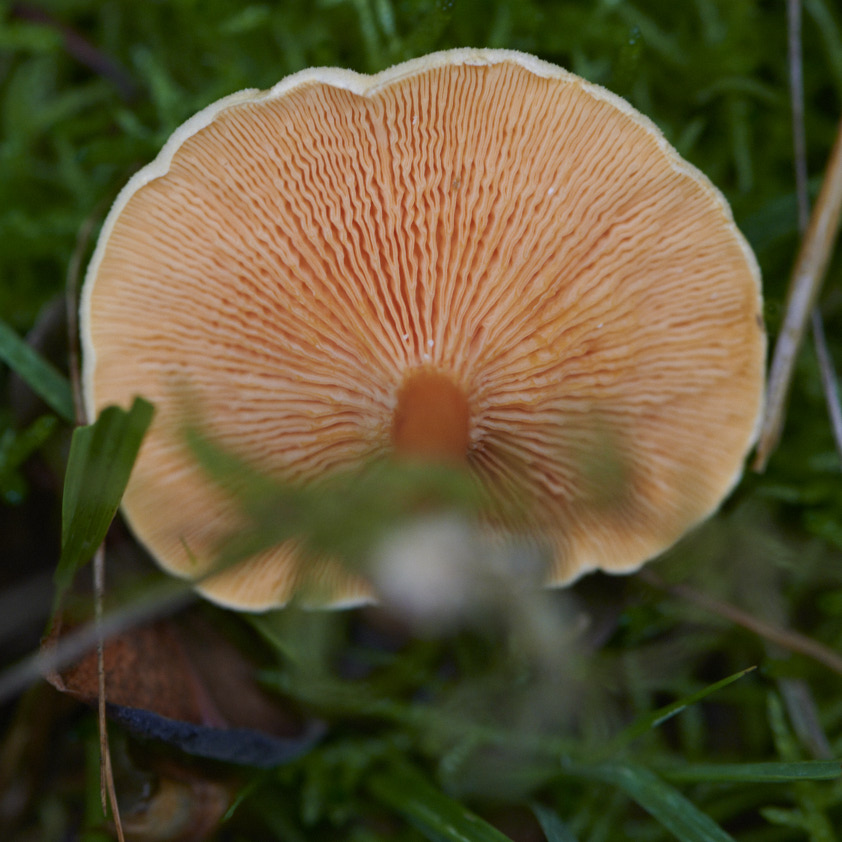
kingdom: Fungi
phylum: Basidiomycota
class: Agaricomycetes
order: Boletales
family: Hygrophoropsidaceae
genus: Hygrophoropsis
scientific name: Hygrophoropsis aurantiaca
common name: almindelig orangekantarel
